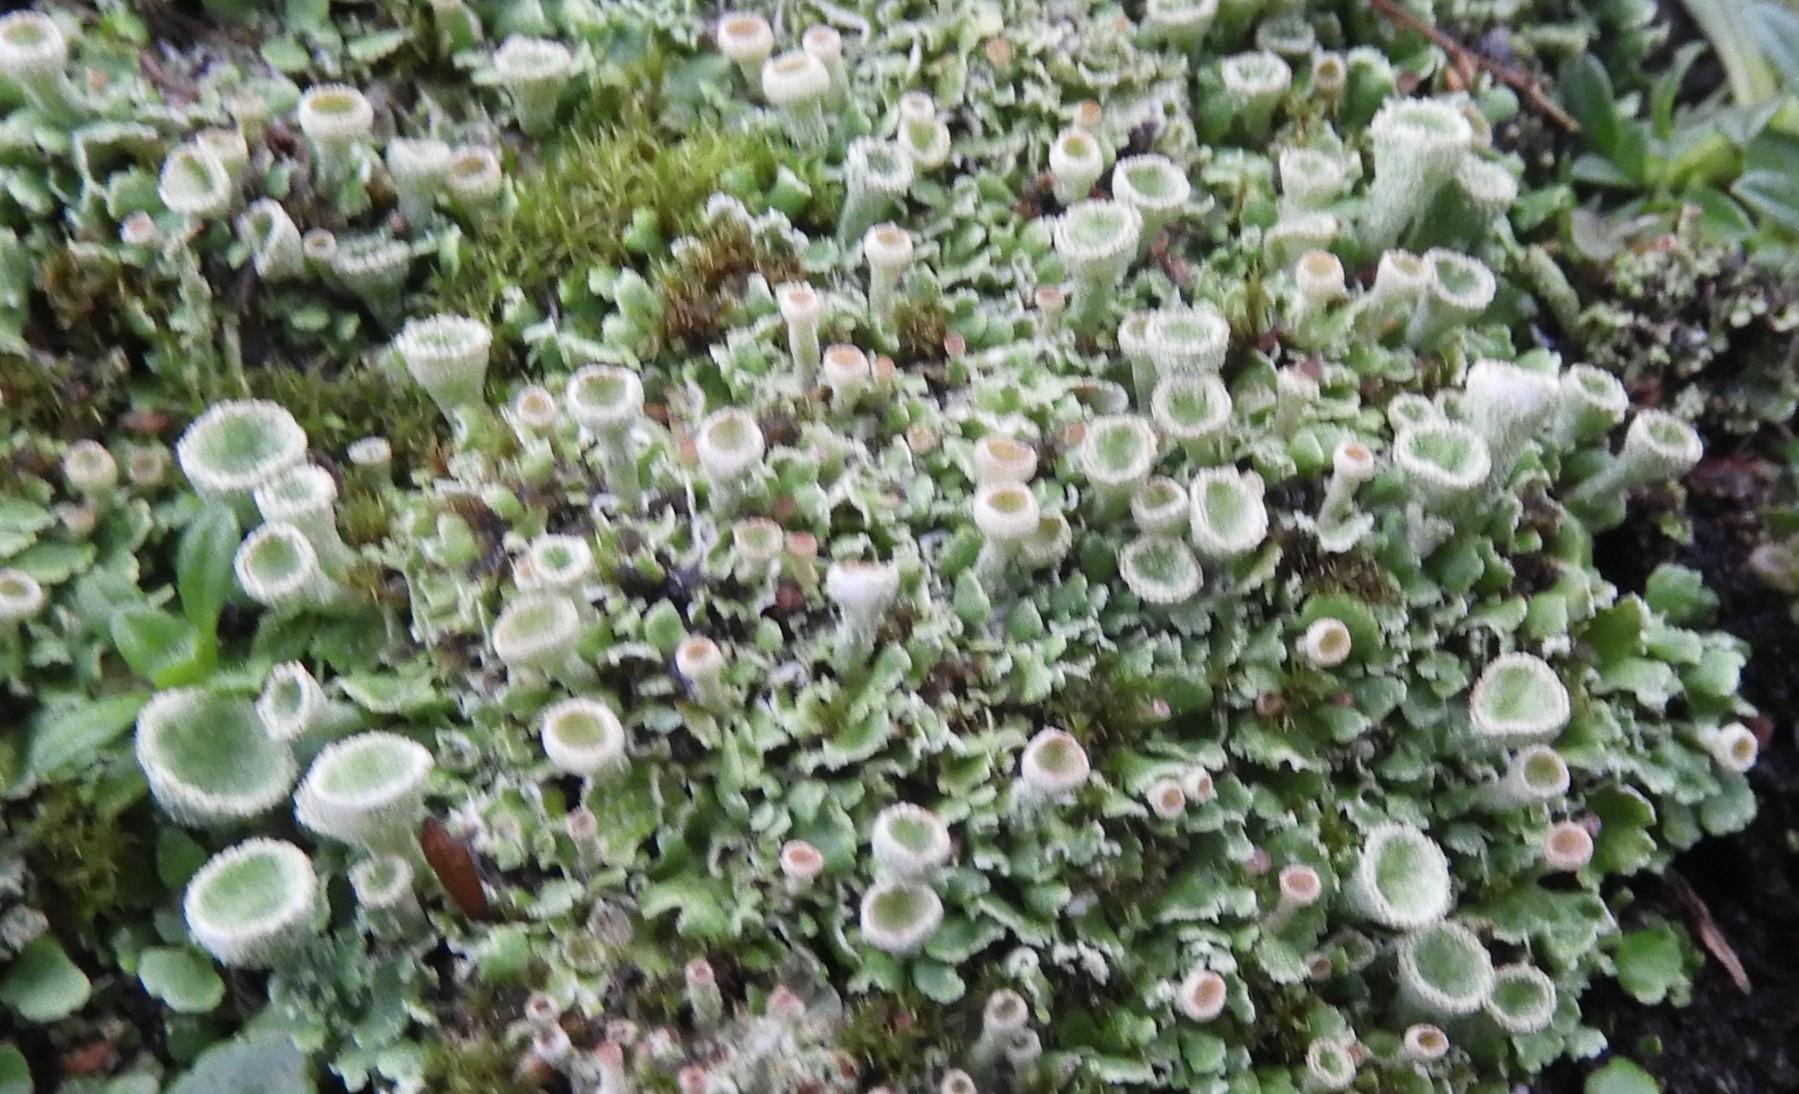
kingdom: Fungi
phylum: Ascomycota
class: Lecanoromycetes
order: Lecanorales
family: Cladoniaceae
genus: Cladonia
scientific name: Cladonia humilis
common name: lav bægerlav
